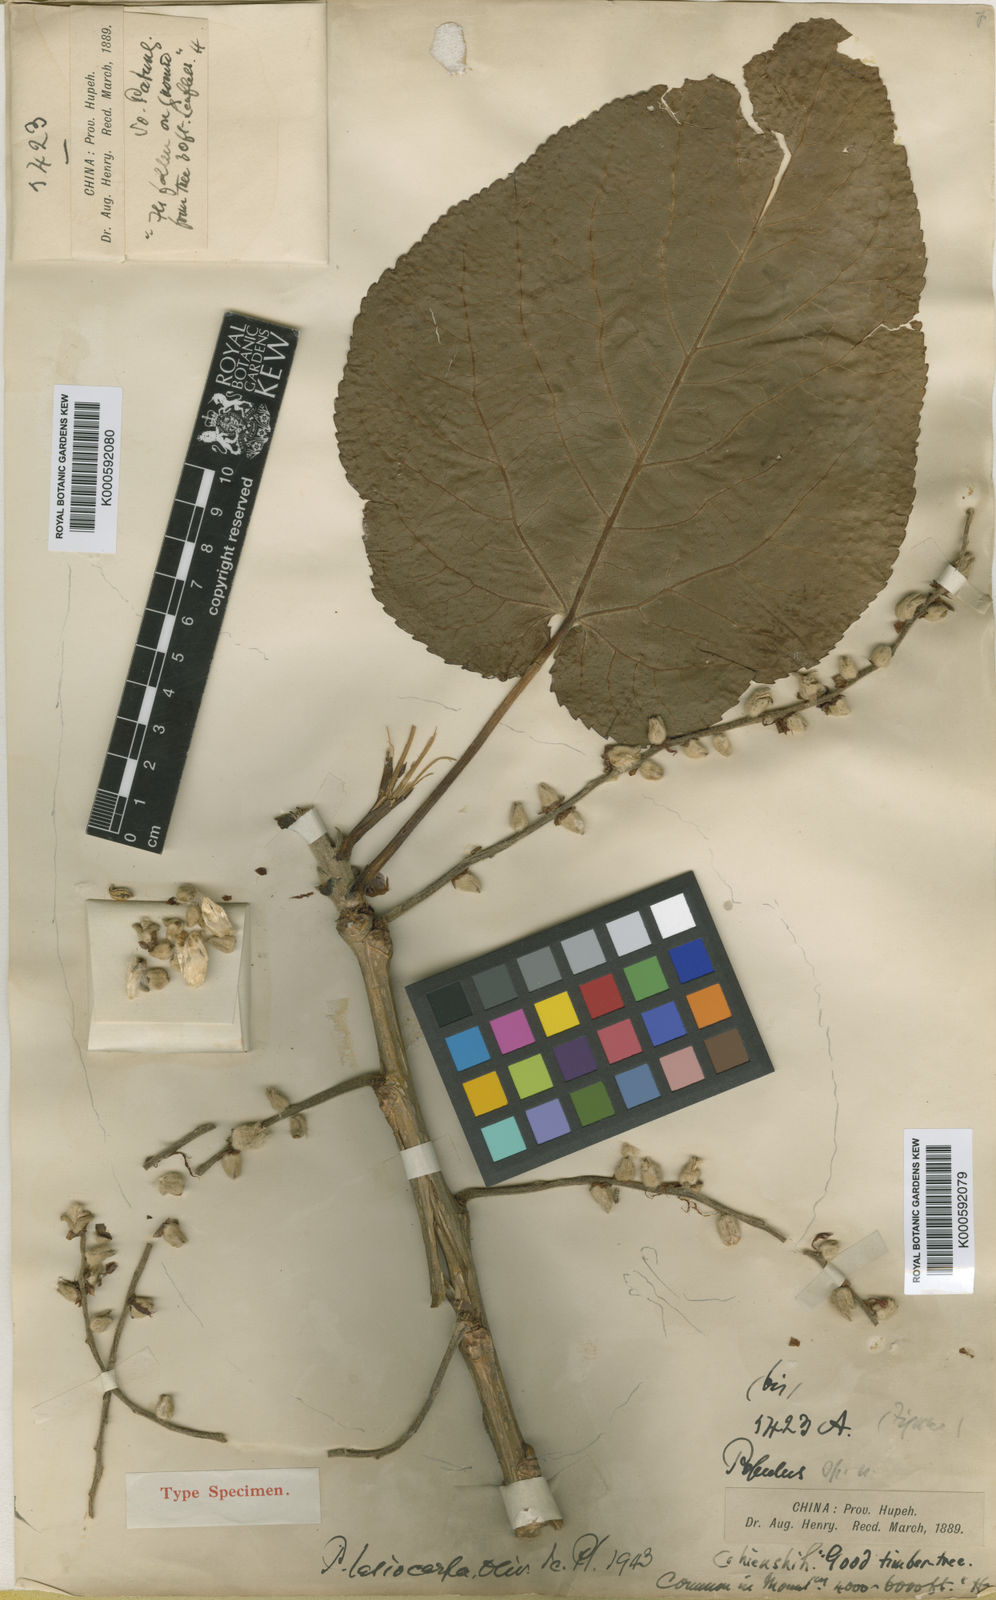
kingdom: Plantae
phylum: Tracheophyta
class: Magnoliopsida
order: Malpighiales
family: Salicaceae
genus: Populus
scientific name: Populus lasiocarpa
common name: Chinese necklace poplar
